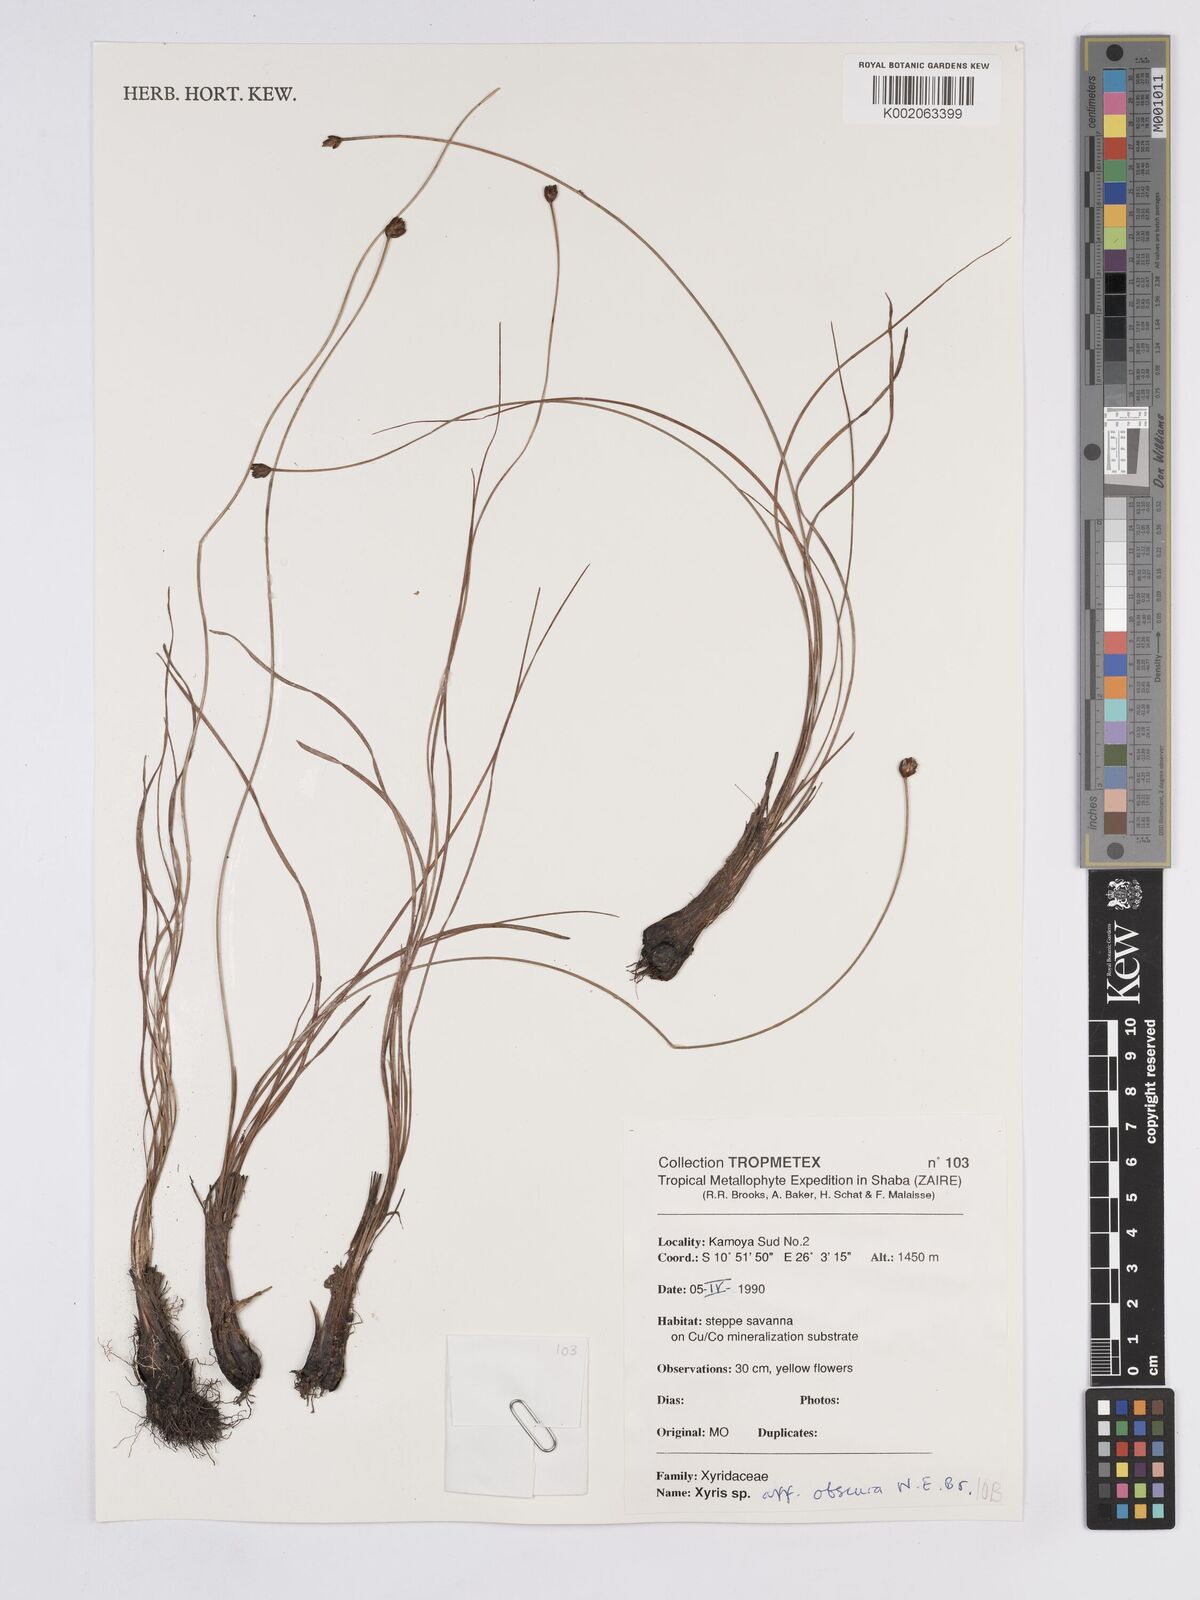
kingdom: Plantae
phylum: Tracheophyta
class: Liliopsida
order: Poales
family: Xyridaceae
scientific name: Xyridaceae
